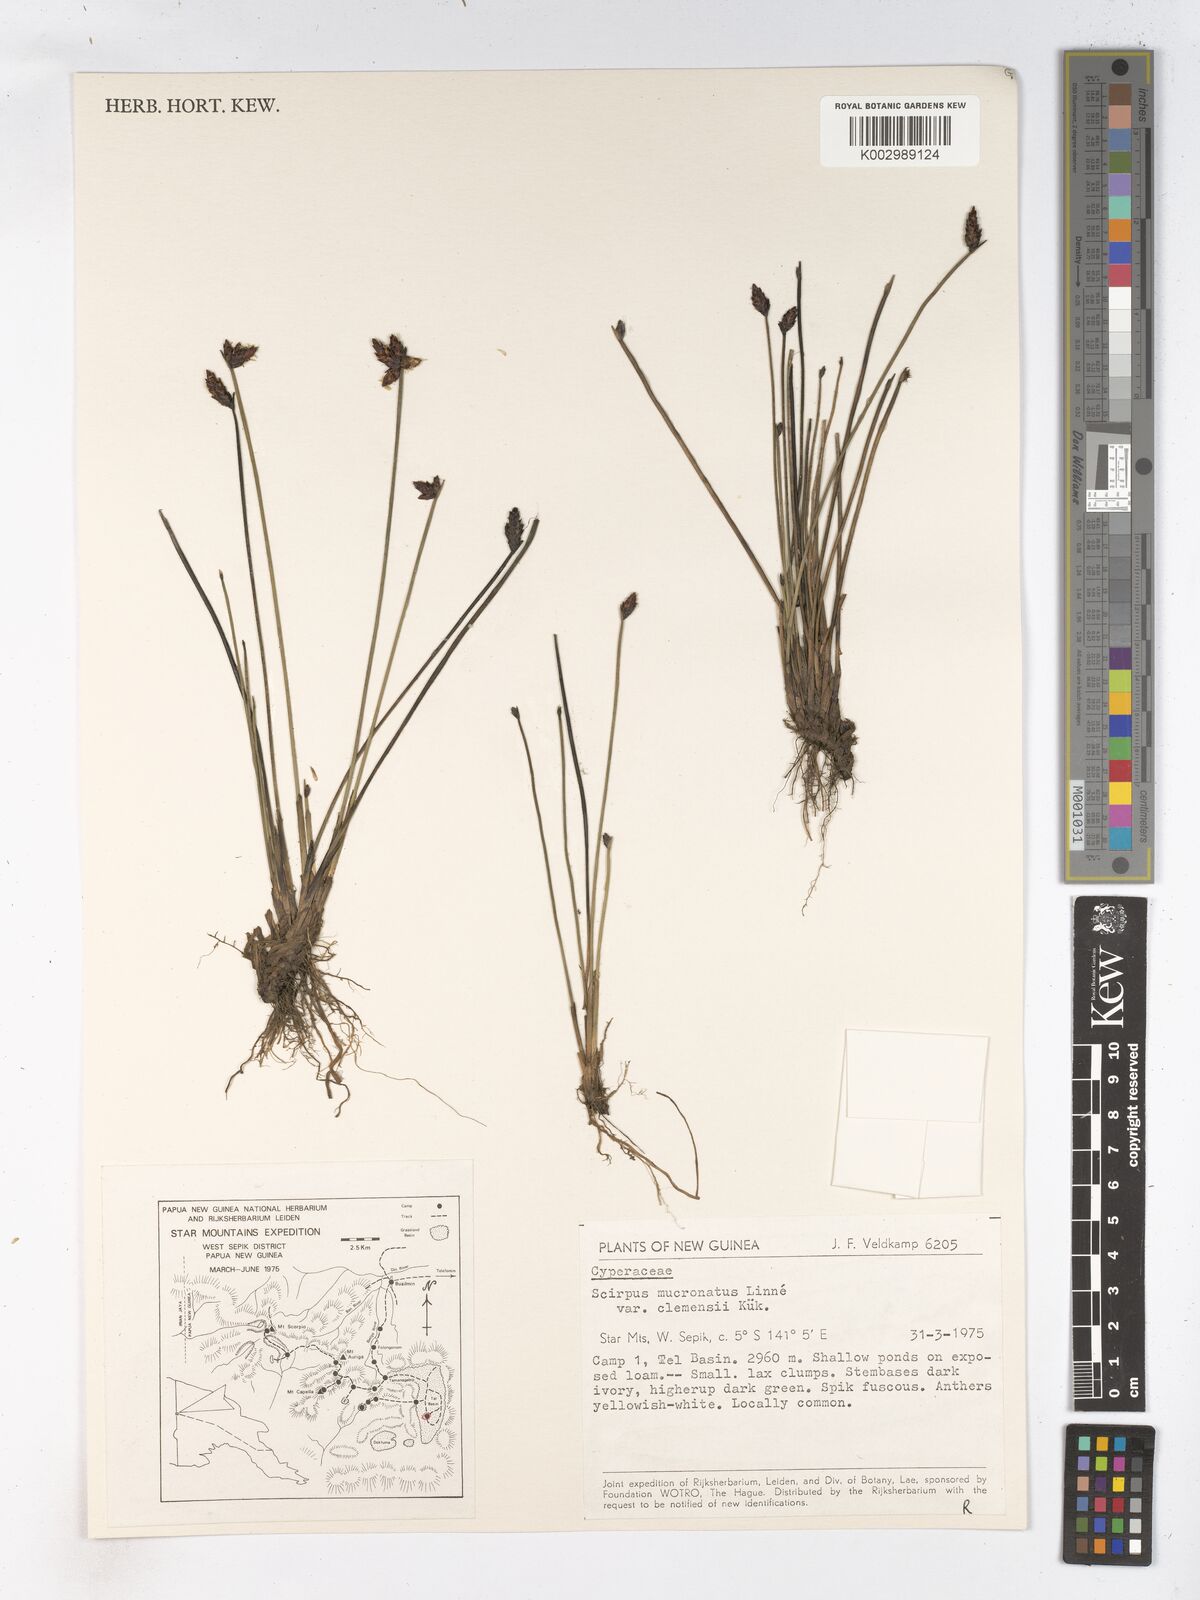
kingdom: Plantae
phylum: Tracheophyta
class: Liliopsida
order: Poales
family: Cyperaceae
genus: Schoenoplectiella
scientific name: Schoenoplectiella clemensiae
